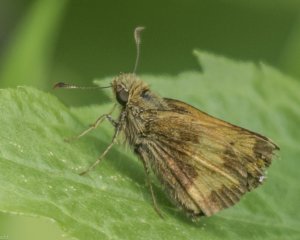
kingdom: Animalia
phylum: Arthropoda
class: Insecta
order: Lepidoptera
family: Hesperiidae
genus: Lon
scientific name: Lon hobomok
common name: Hobomok Skipper
